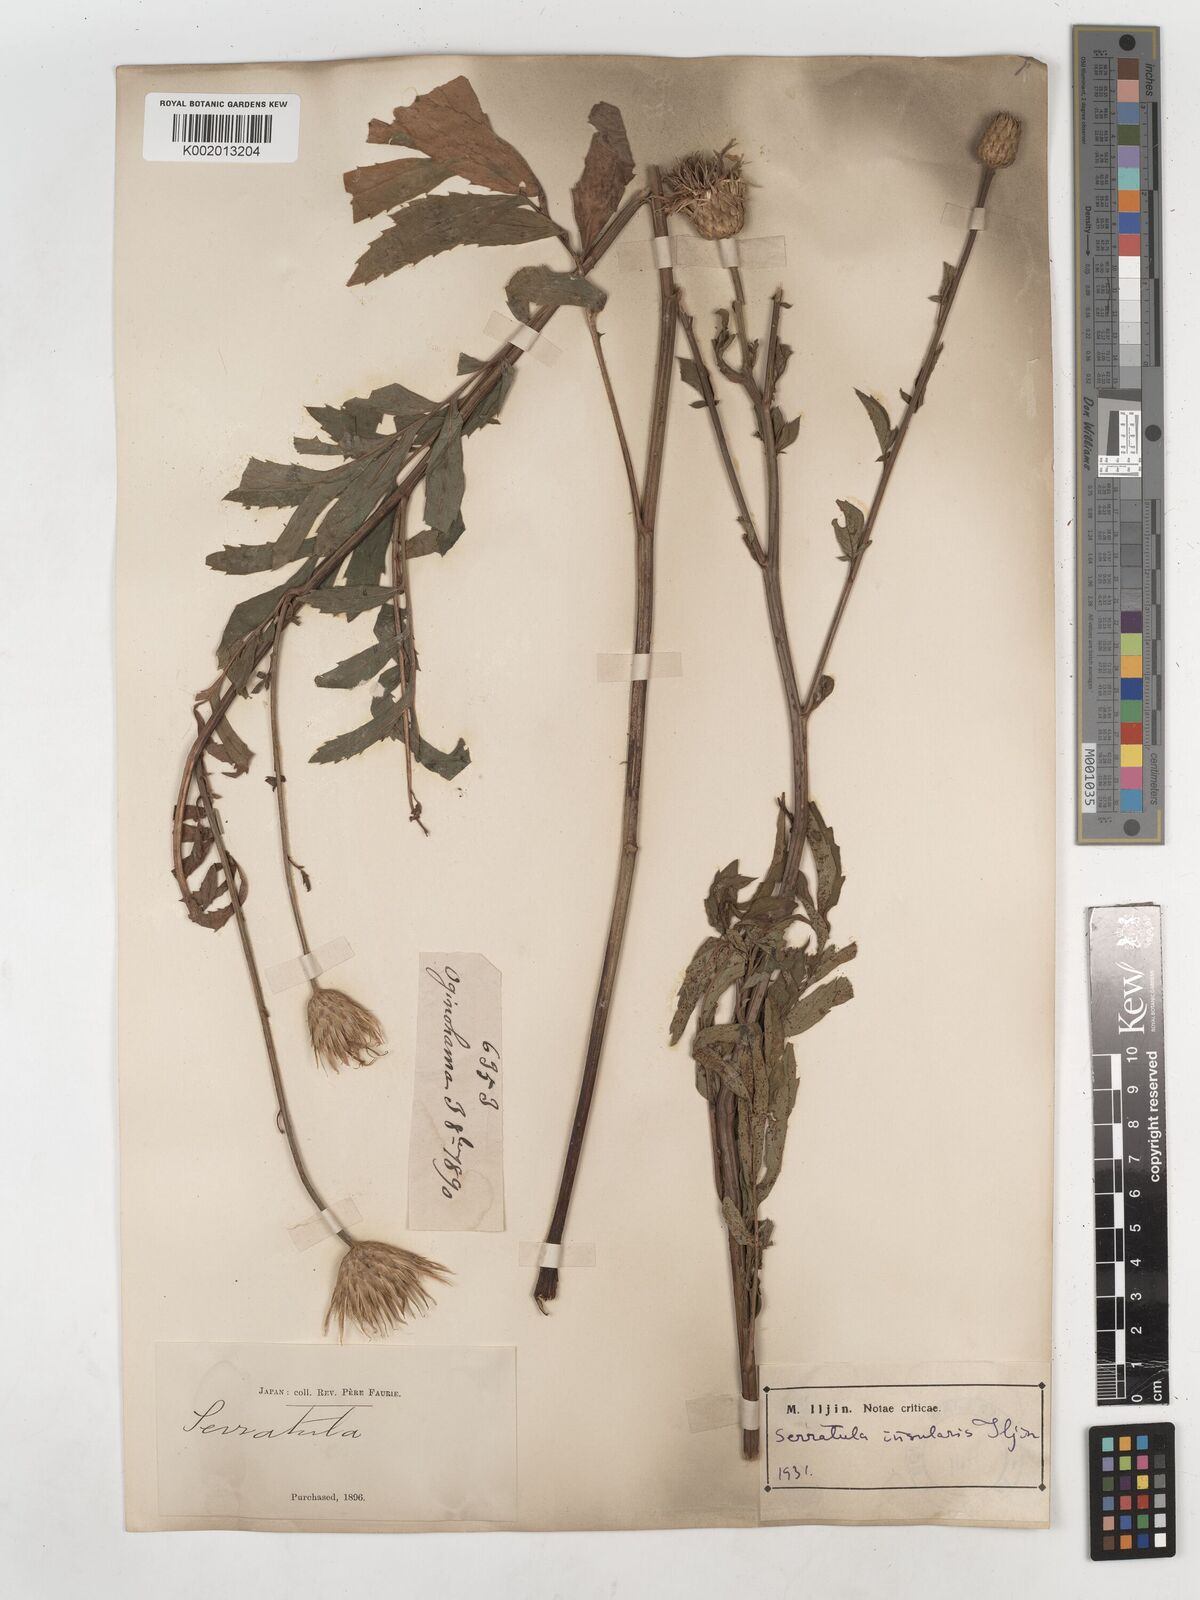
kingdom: Plantae
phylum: Tracheophyta
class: Magnoliopsida
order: Asterales
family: Asteraceae
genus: Serratula
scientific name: Serratula coronata
